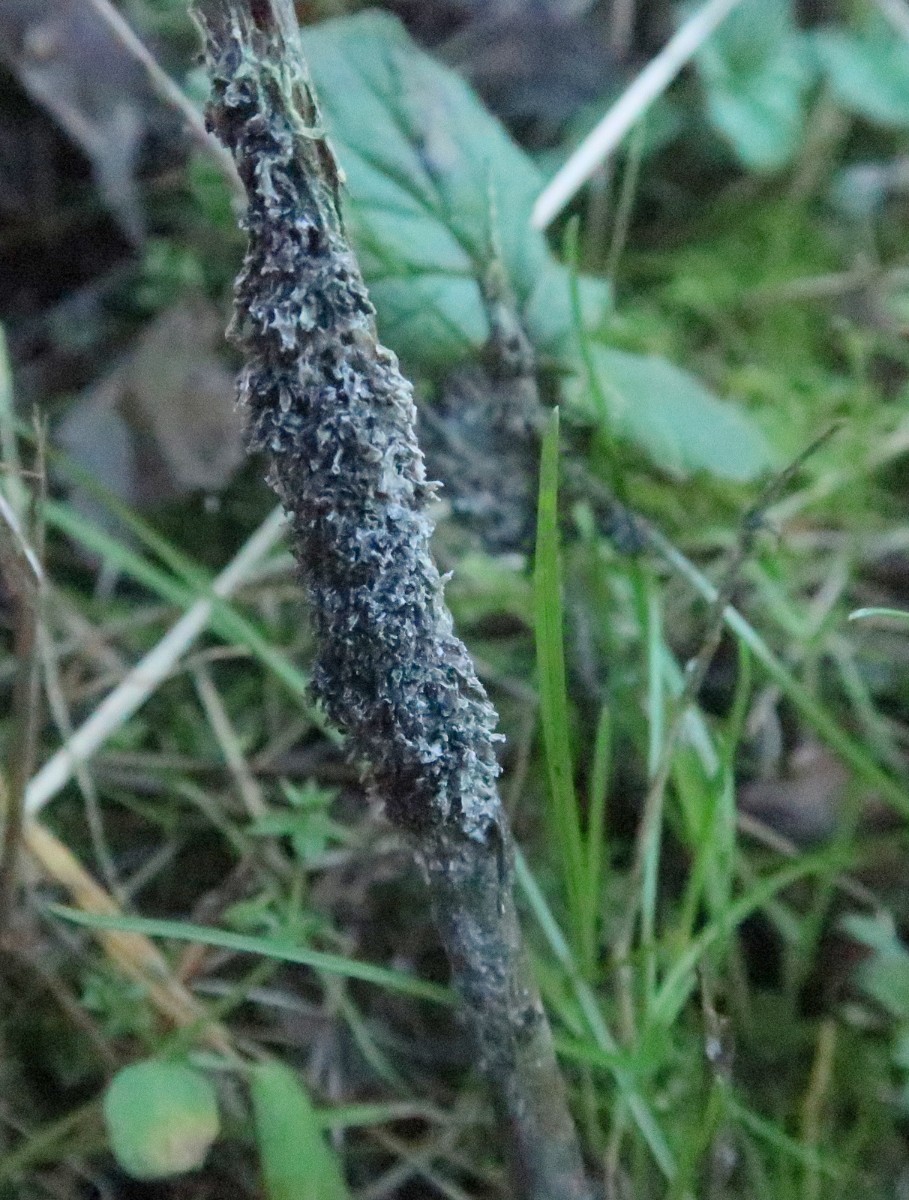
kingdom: Protozoa
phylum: Mycetozoa
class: Myxomycetes
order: Physarales
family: Physaraceae
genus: Didymium
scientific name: Didymium
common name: urteskum
